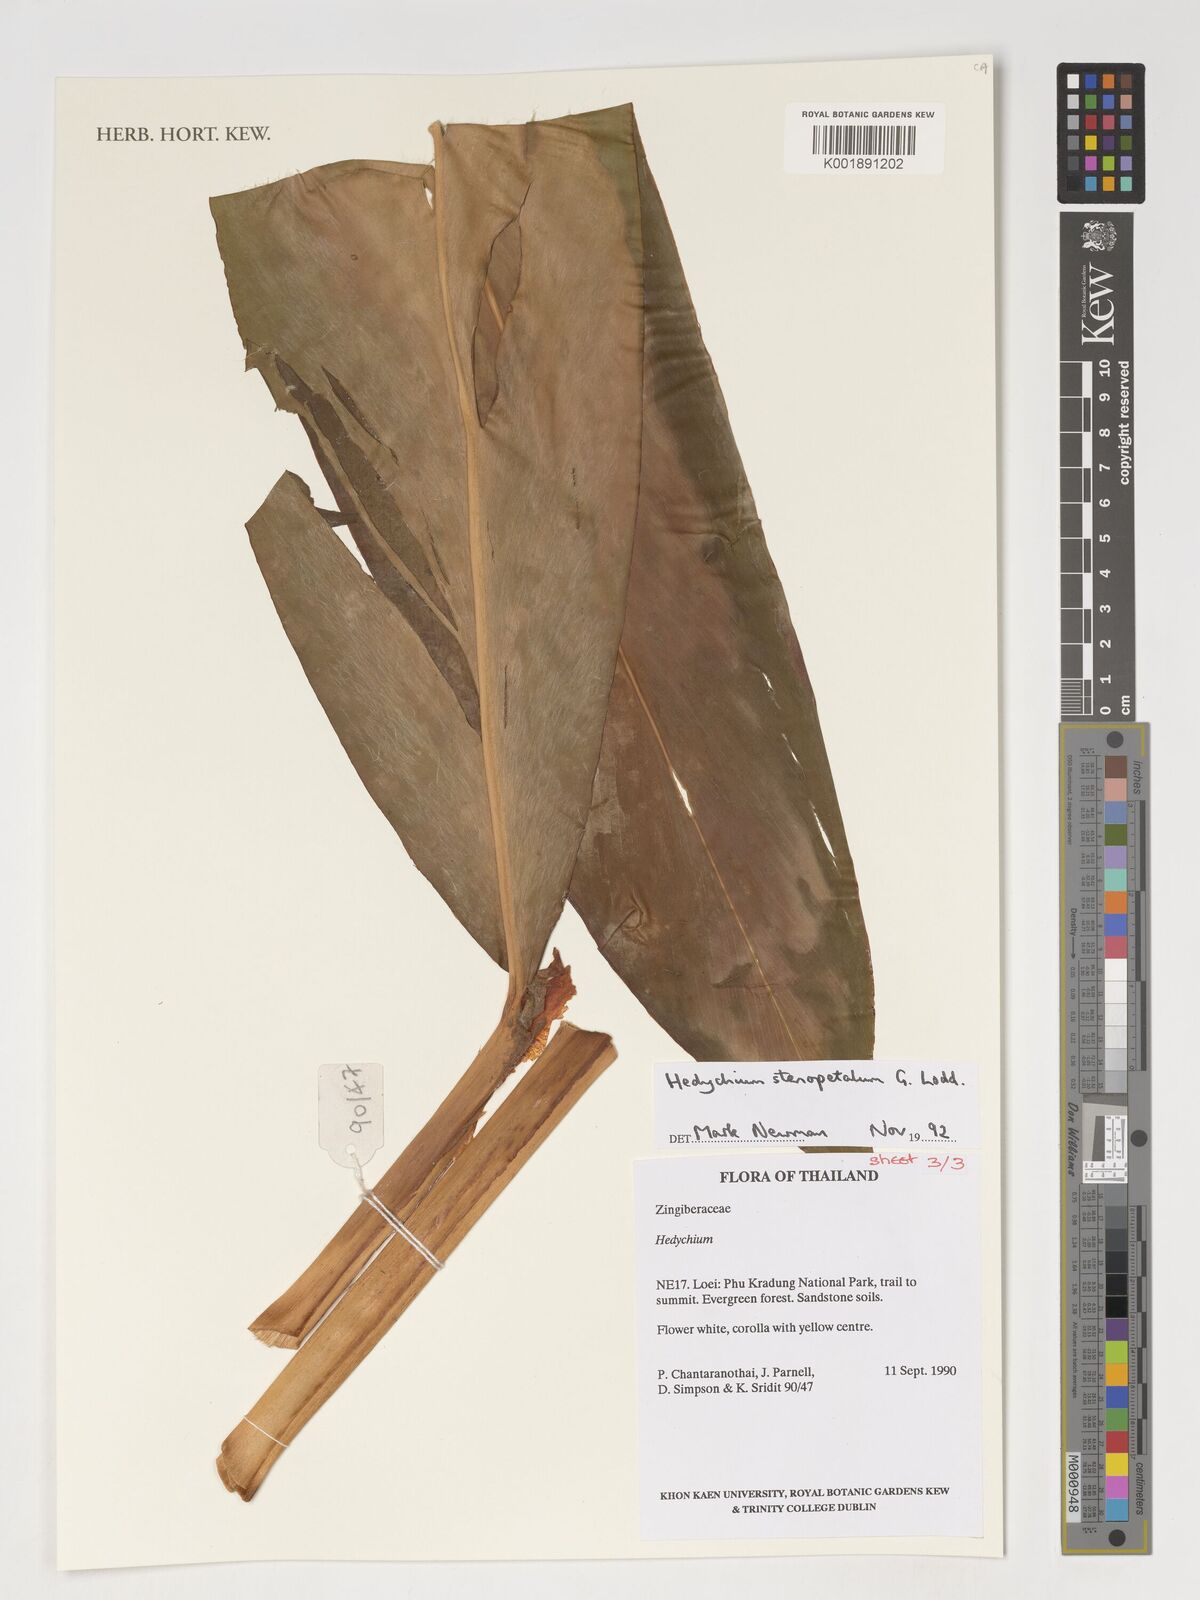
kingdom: Plantae
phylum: Tracheophyta
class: Liliopsida
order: Zingiberales
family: Zingiberaceae
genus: Hedychium
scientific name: Hedychium stenopetalum
